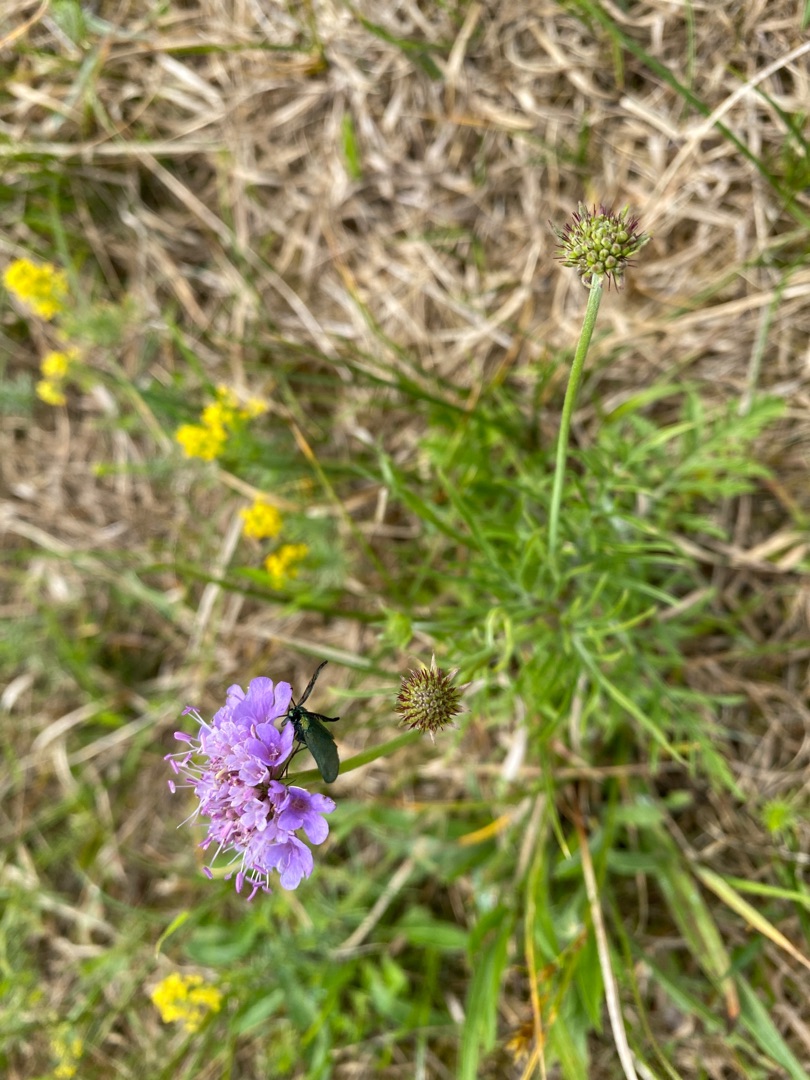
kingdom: Plantae
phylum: Tracheophyta
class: Magnoliopsida
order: Dipsacales
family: Caprifoliaceae
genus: Scabiosa
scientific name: Scabiosa columbaria
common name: Due-skabiose
